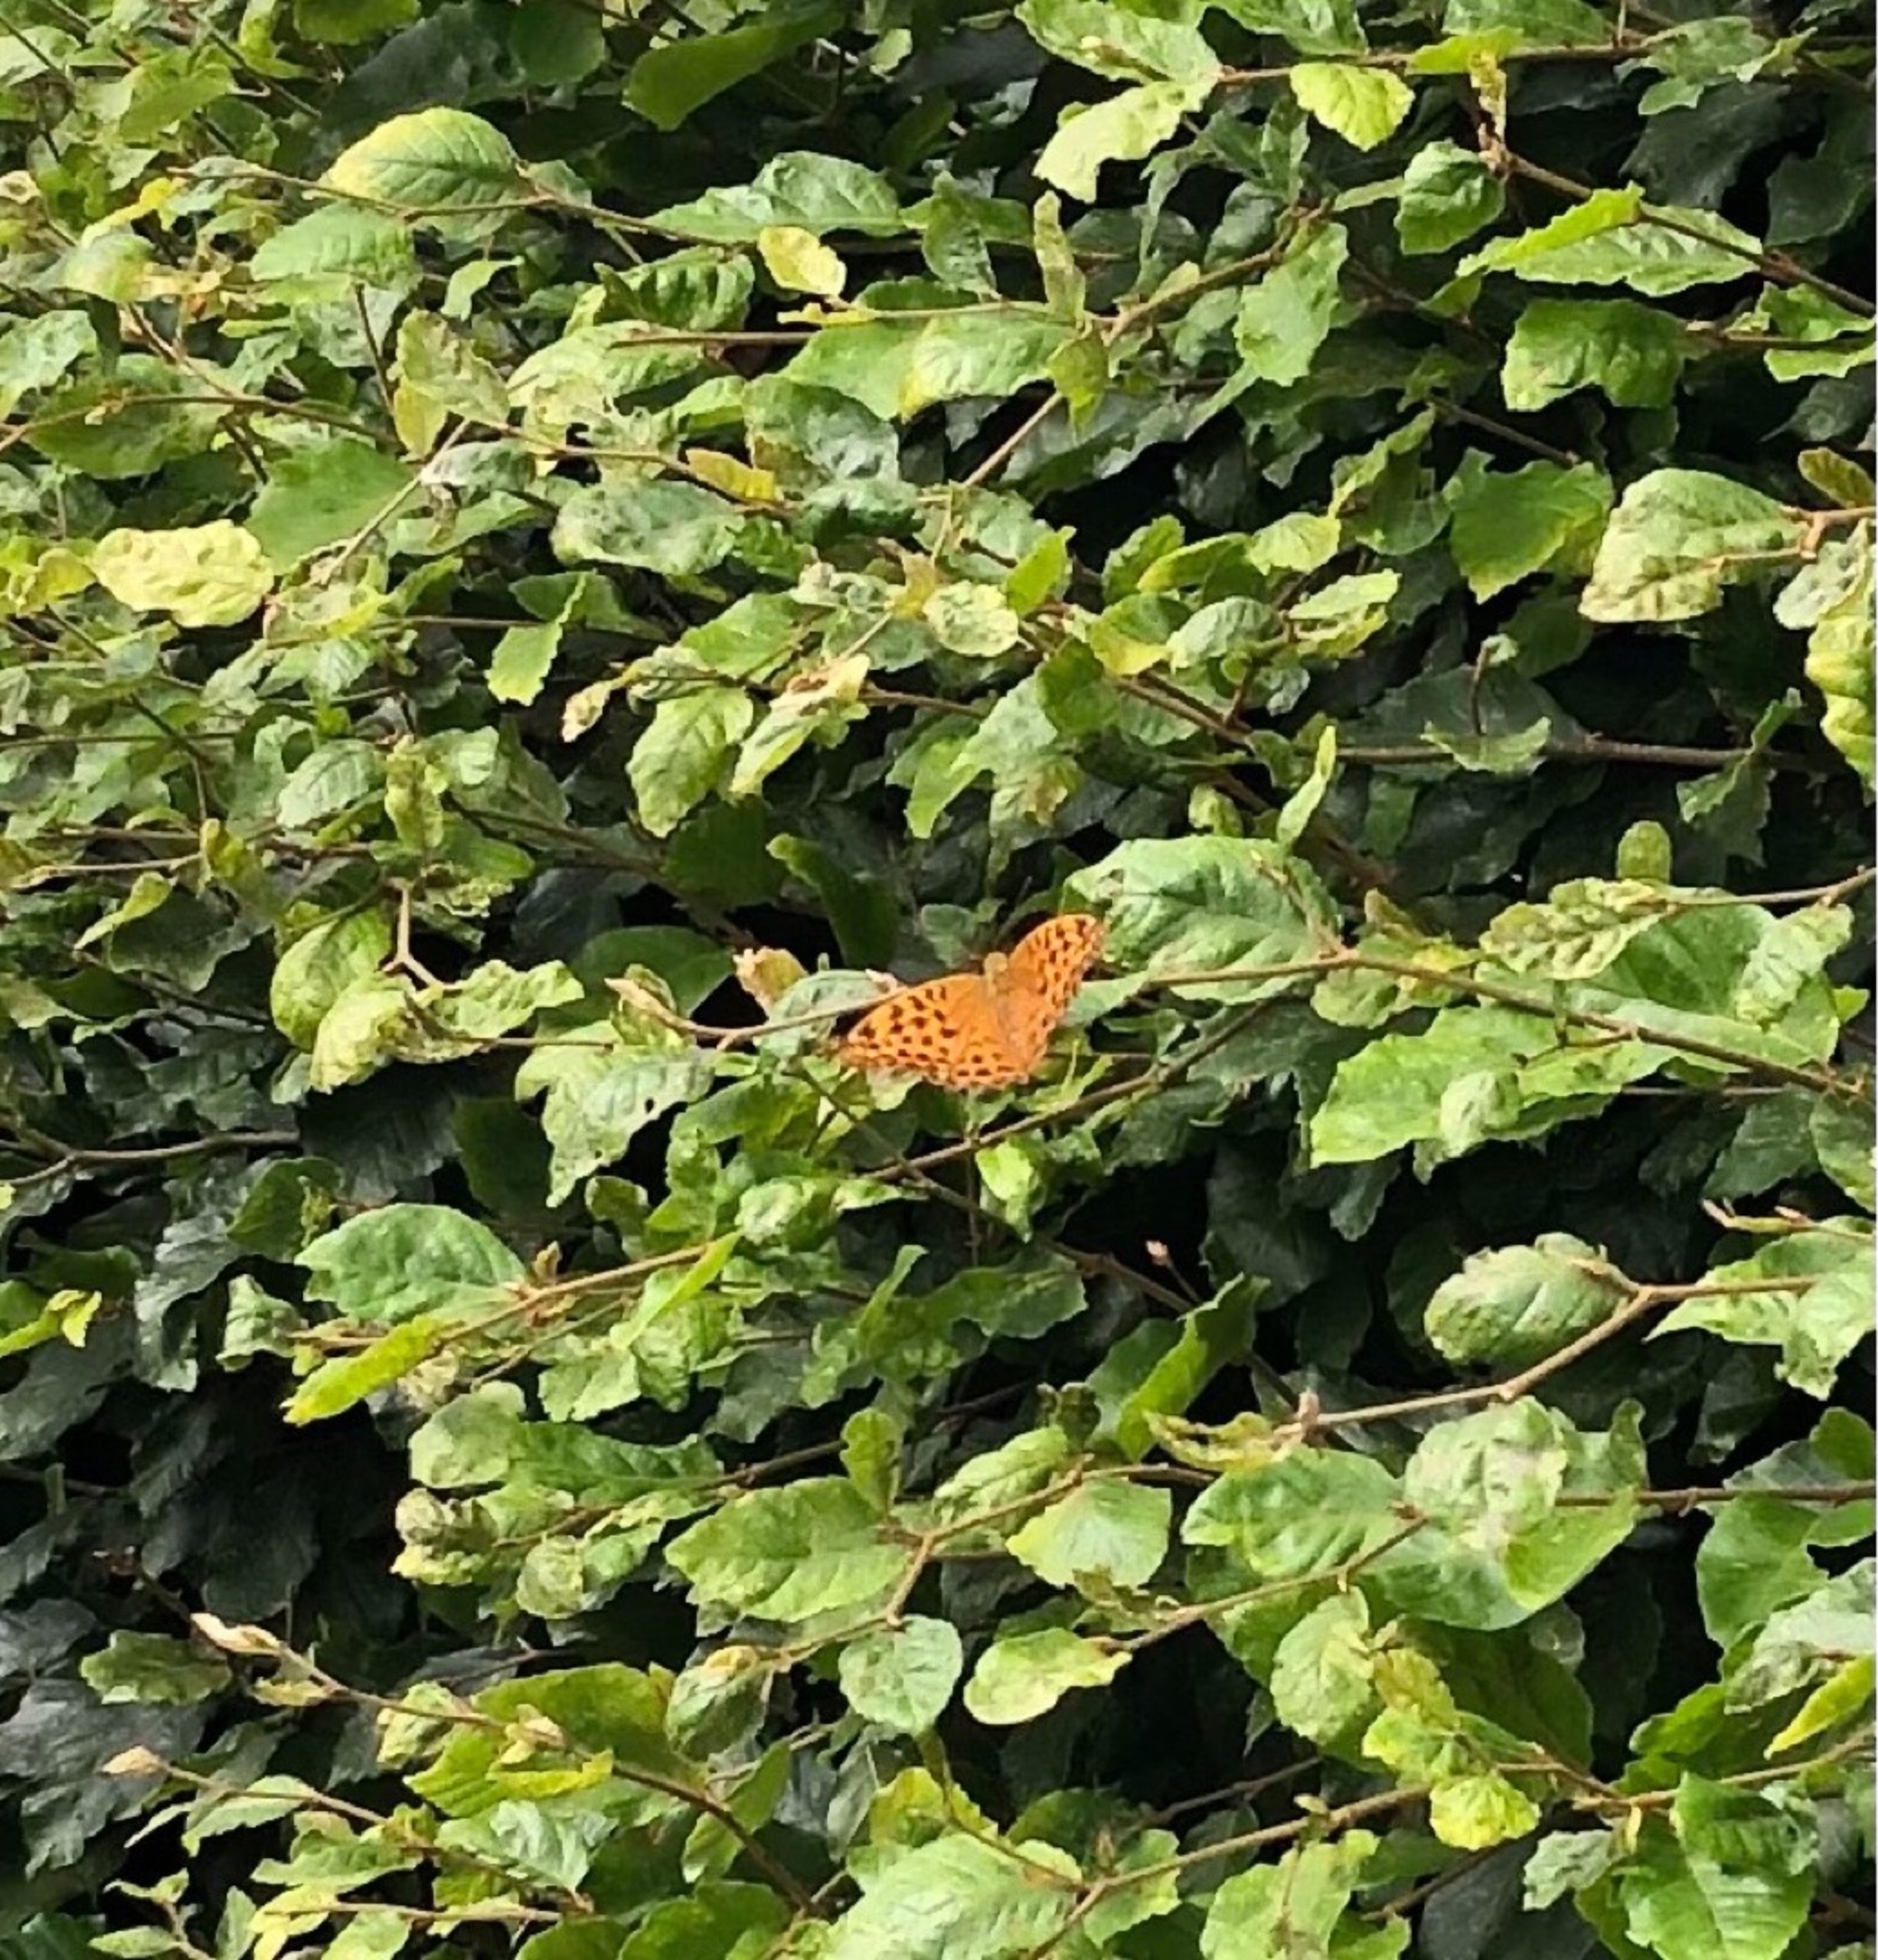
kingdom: Animalia
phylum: Arthropoda
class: Insecta
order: Lepidoptera
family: Nymphalidae
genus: Argynnis
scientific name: Argynnis paphia
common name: Kejserkåbe
